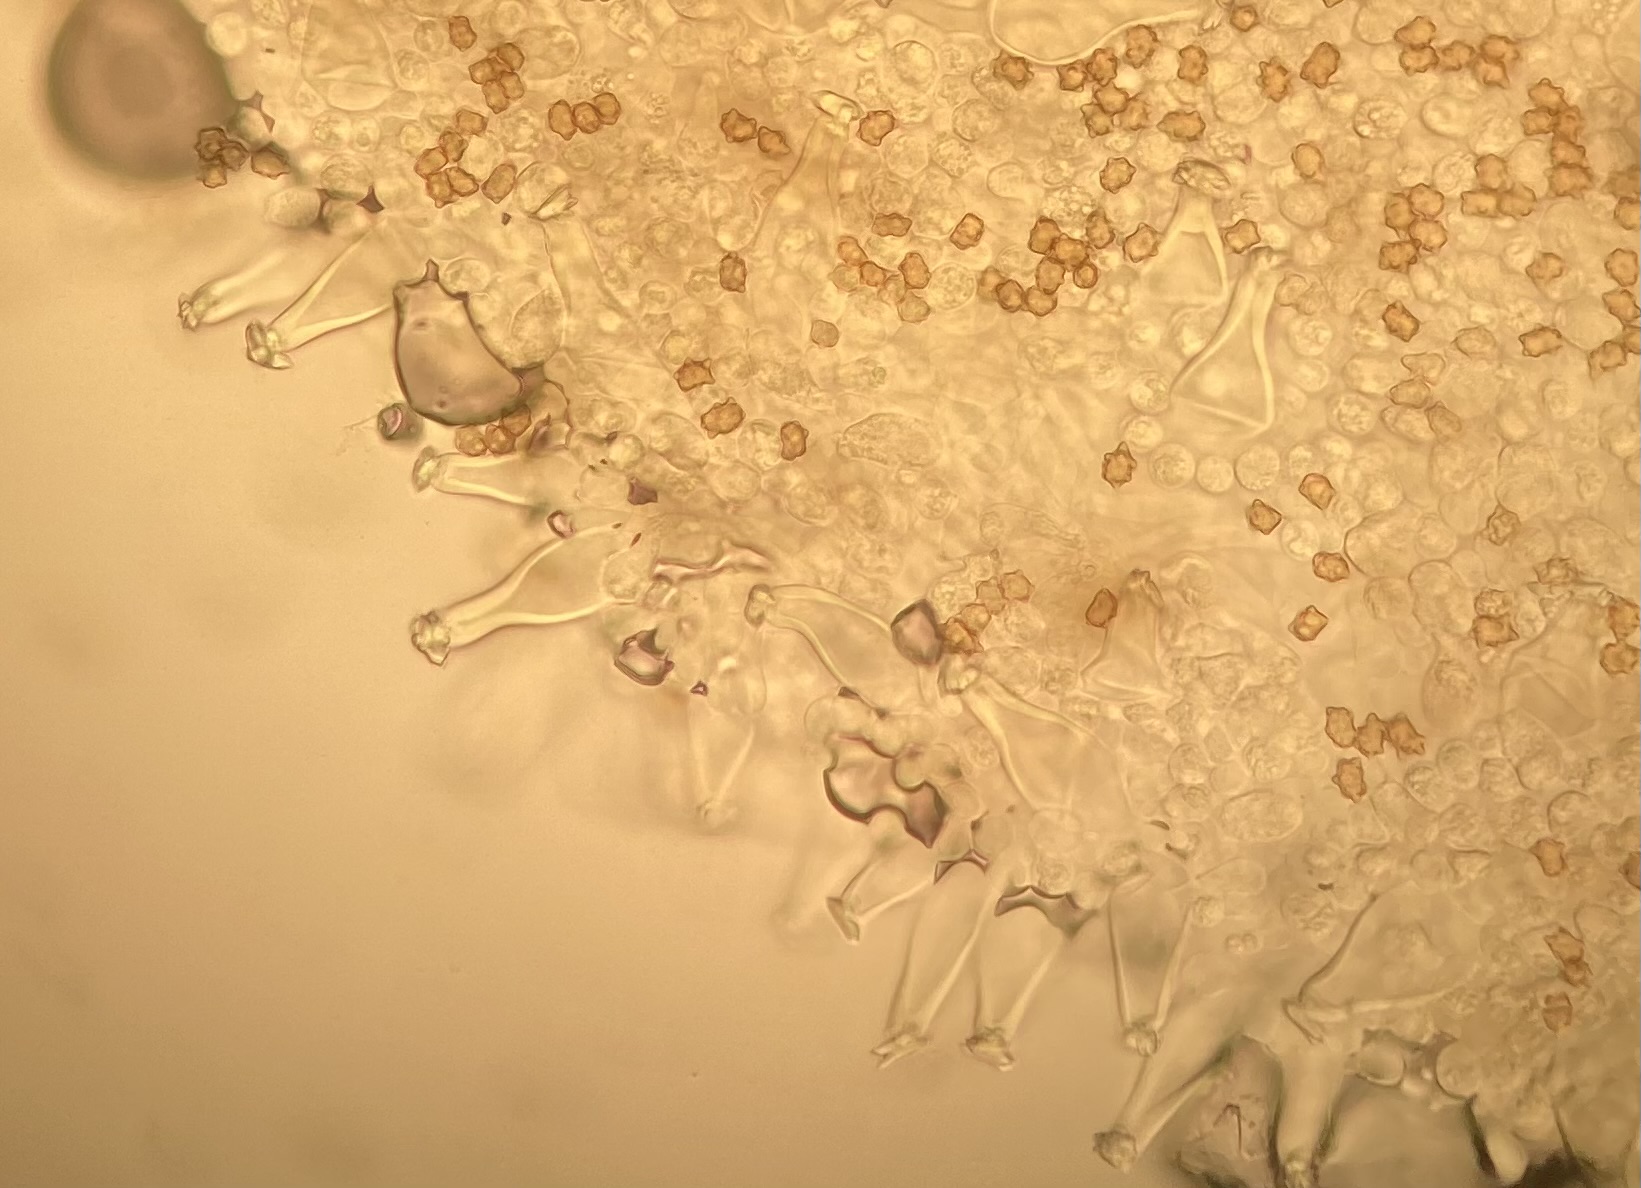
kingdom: Fungi
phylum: Basidiomycota
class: Agaricomycetes
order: Agaricales
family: Inocybaceae
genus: Inocybe
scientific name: Inocybe mixtilis
